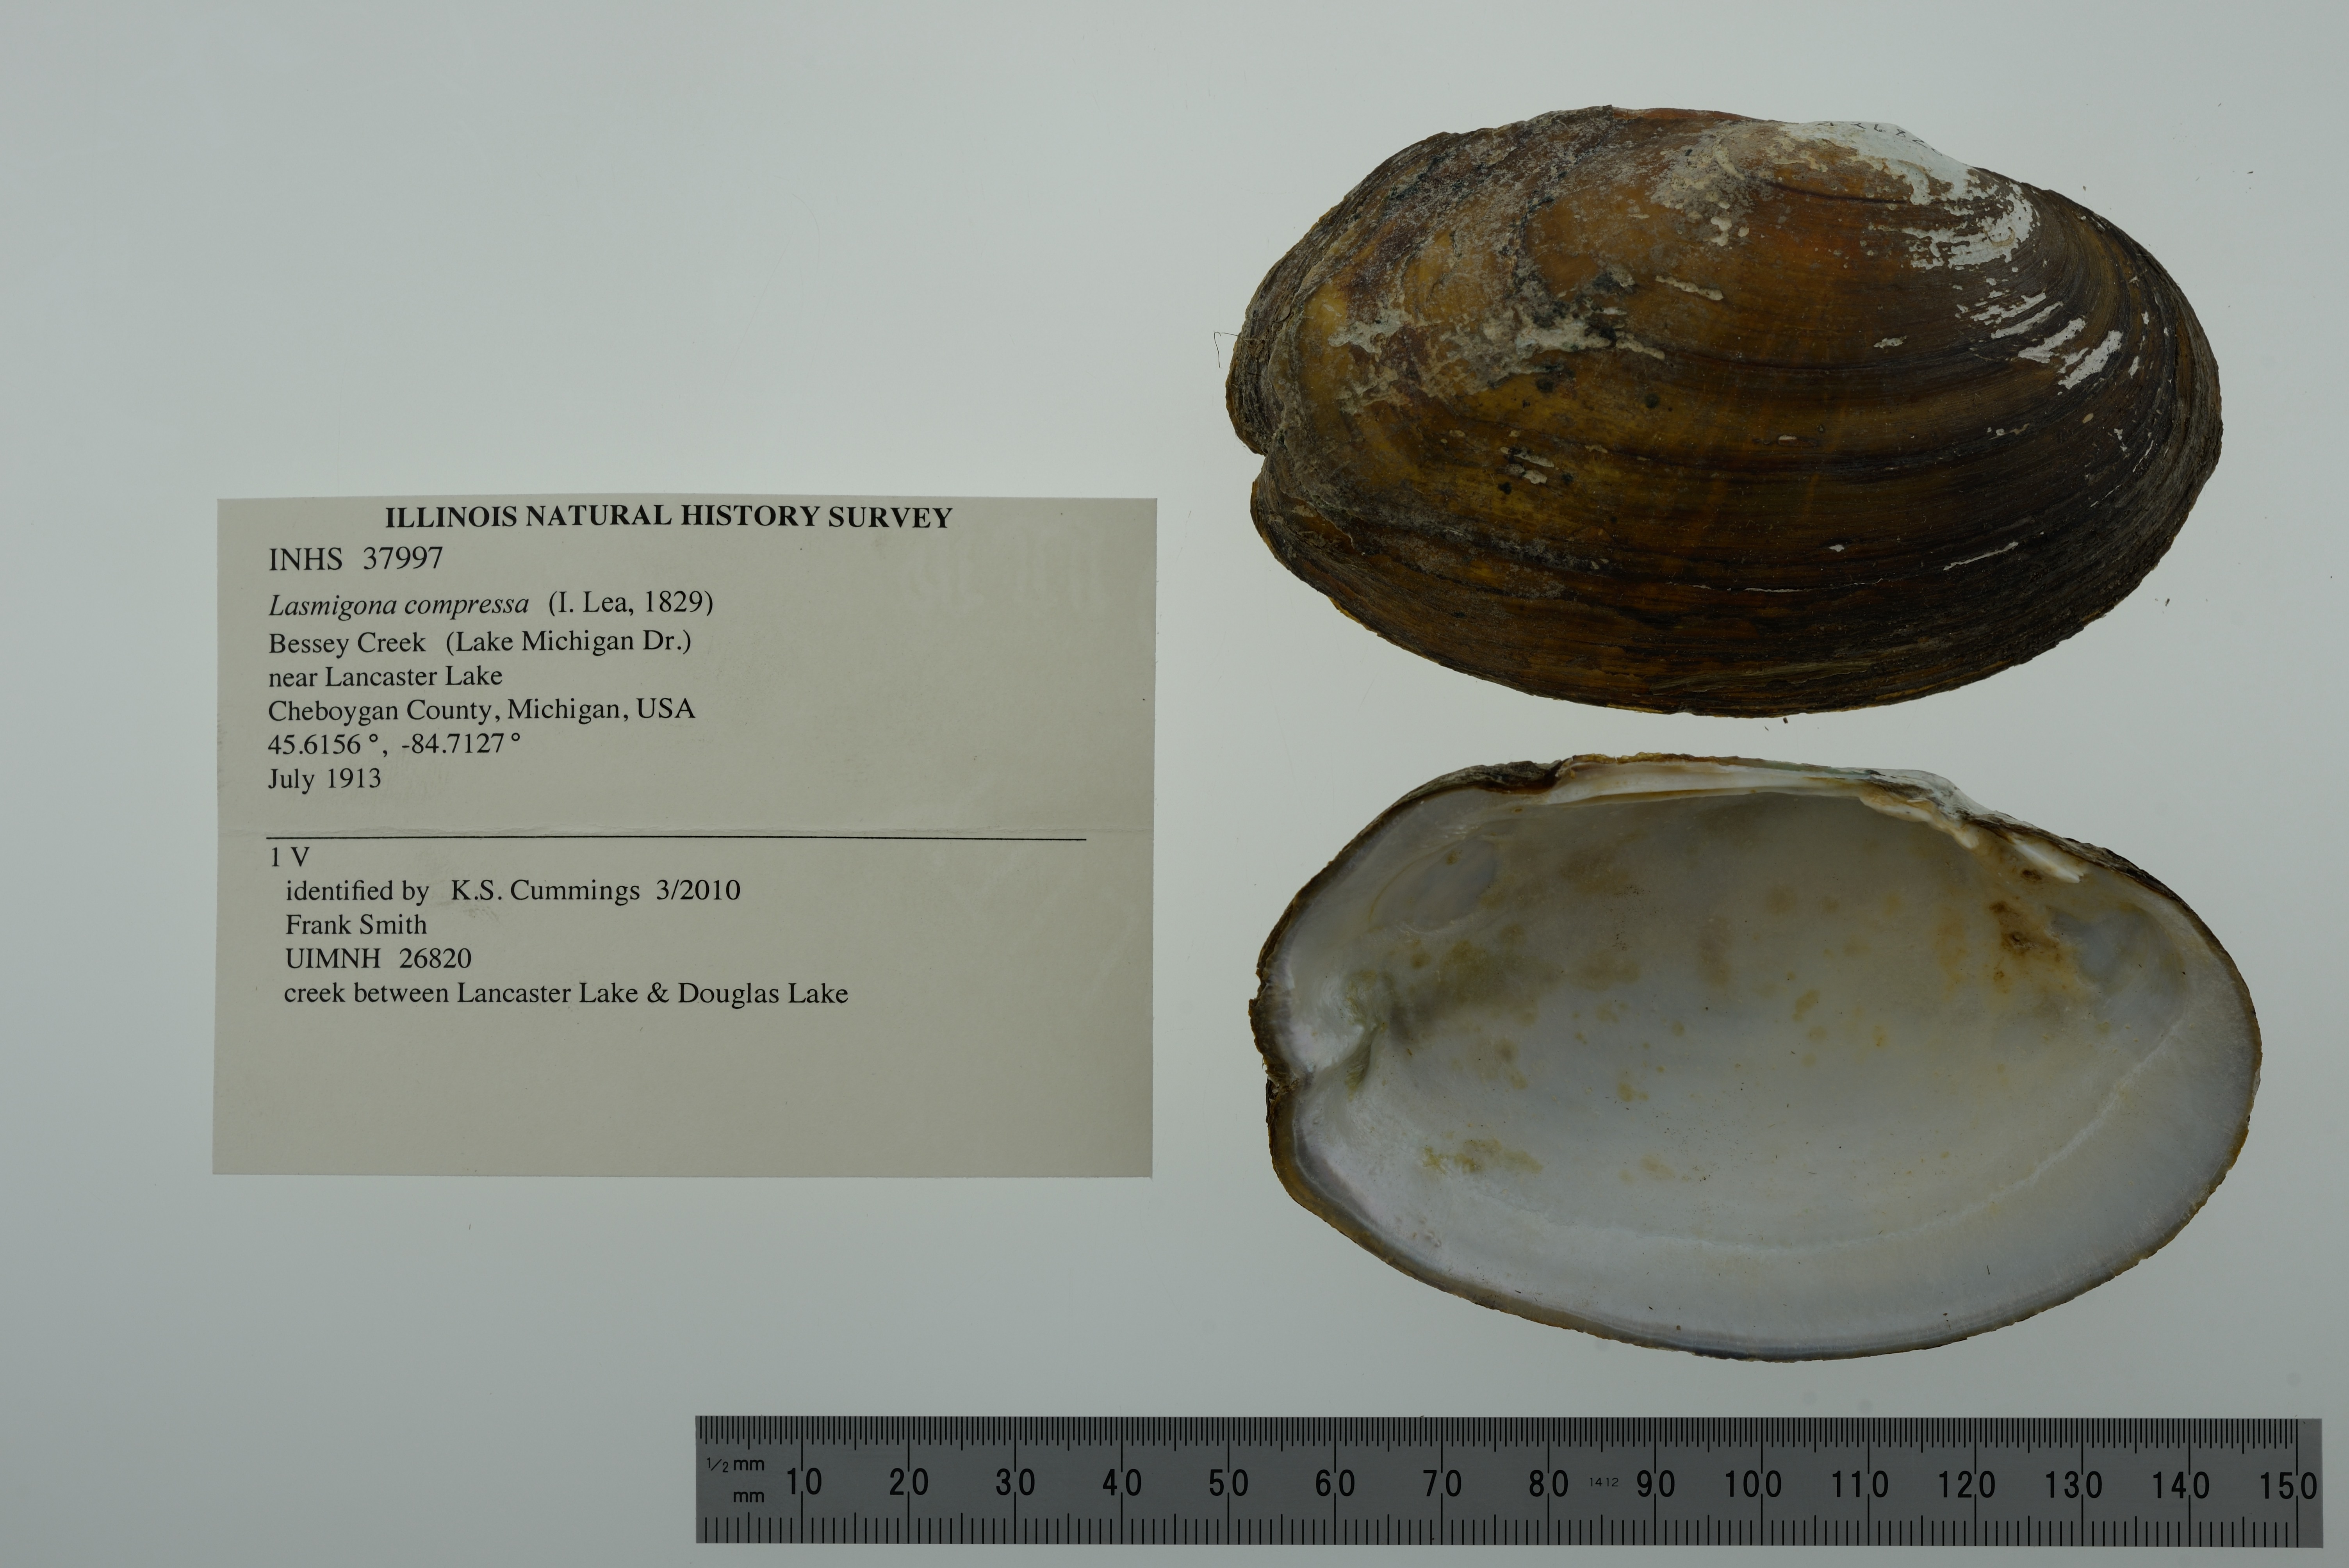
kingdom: Animalia
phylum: Mollusca
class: Bivalvia
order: Unionida
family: Unionidae
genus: Lasmigona
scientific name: Lasmigona compressa
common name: Creek heelsplitter
